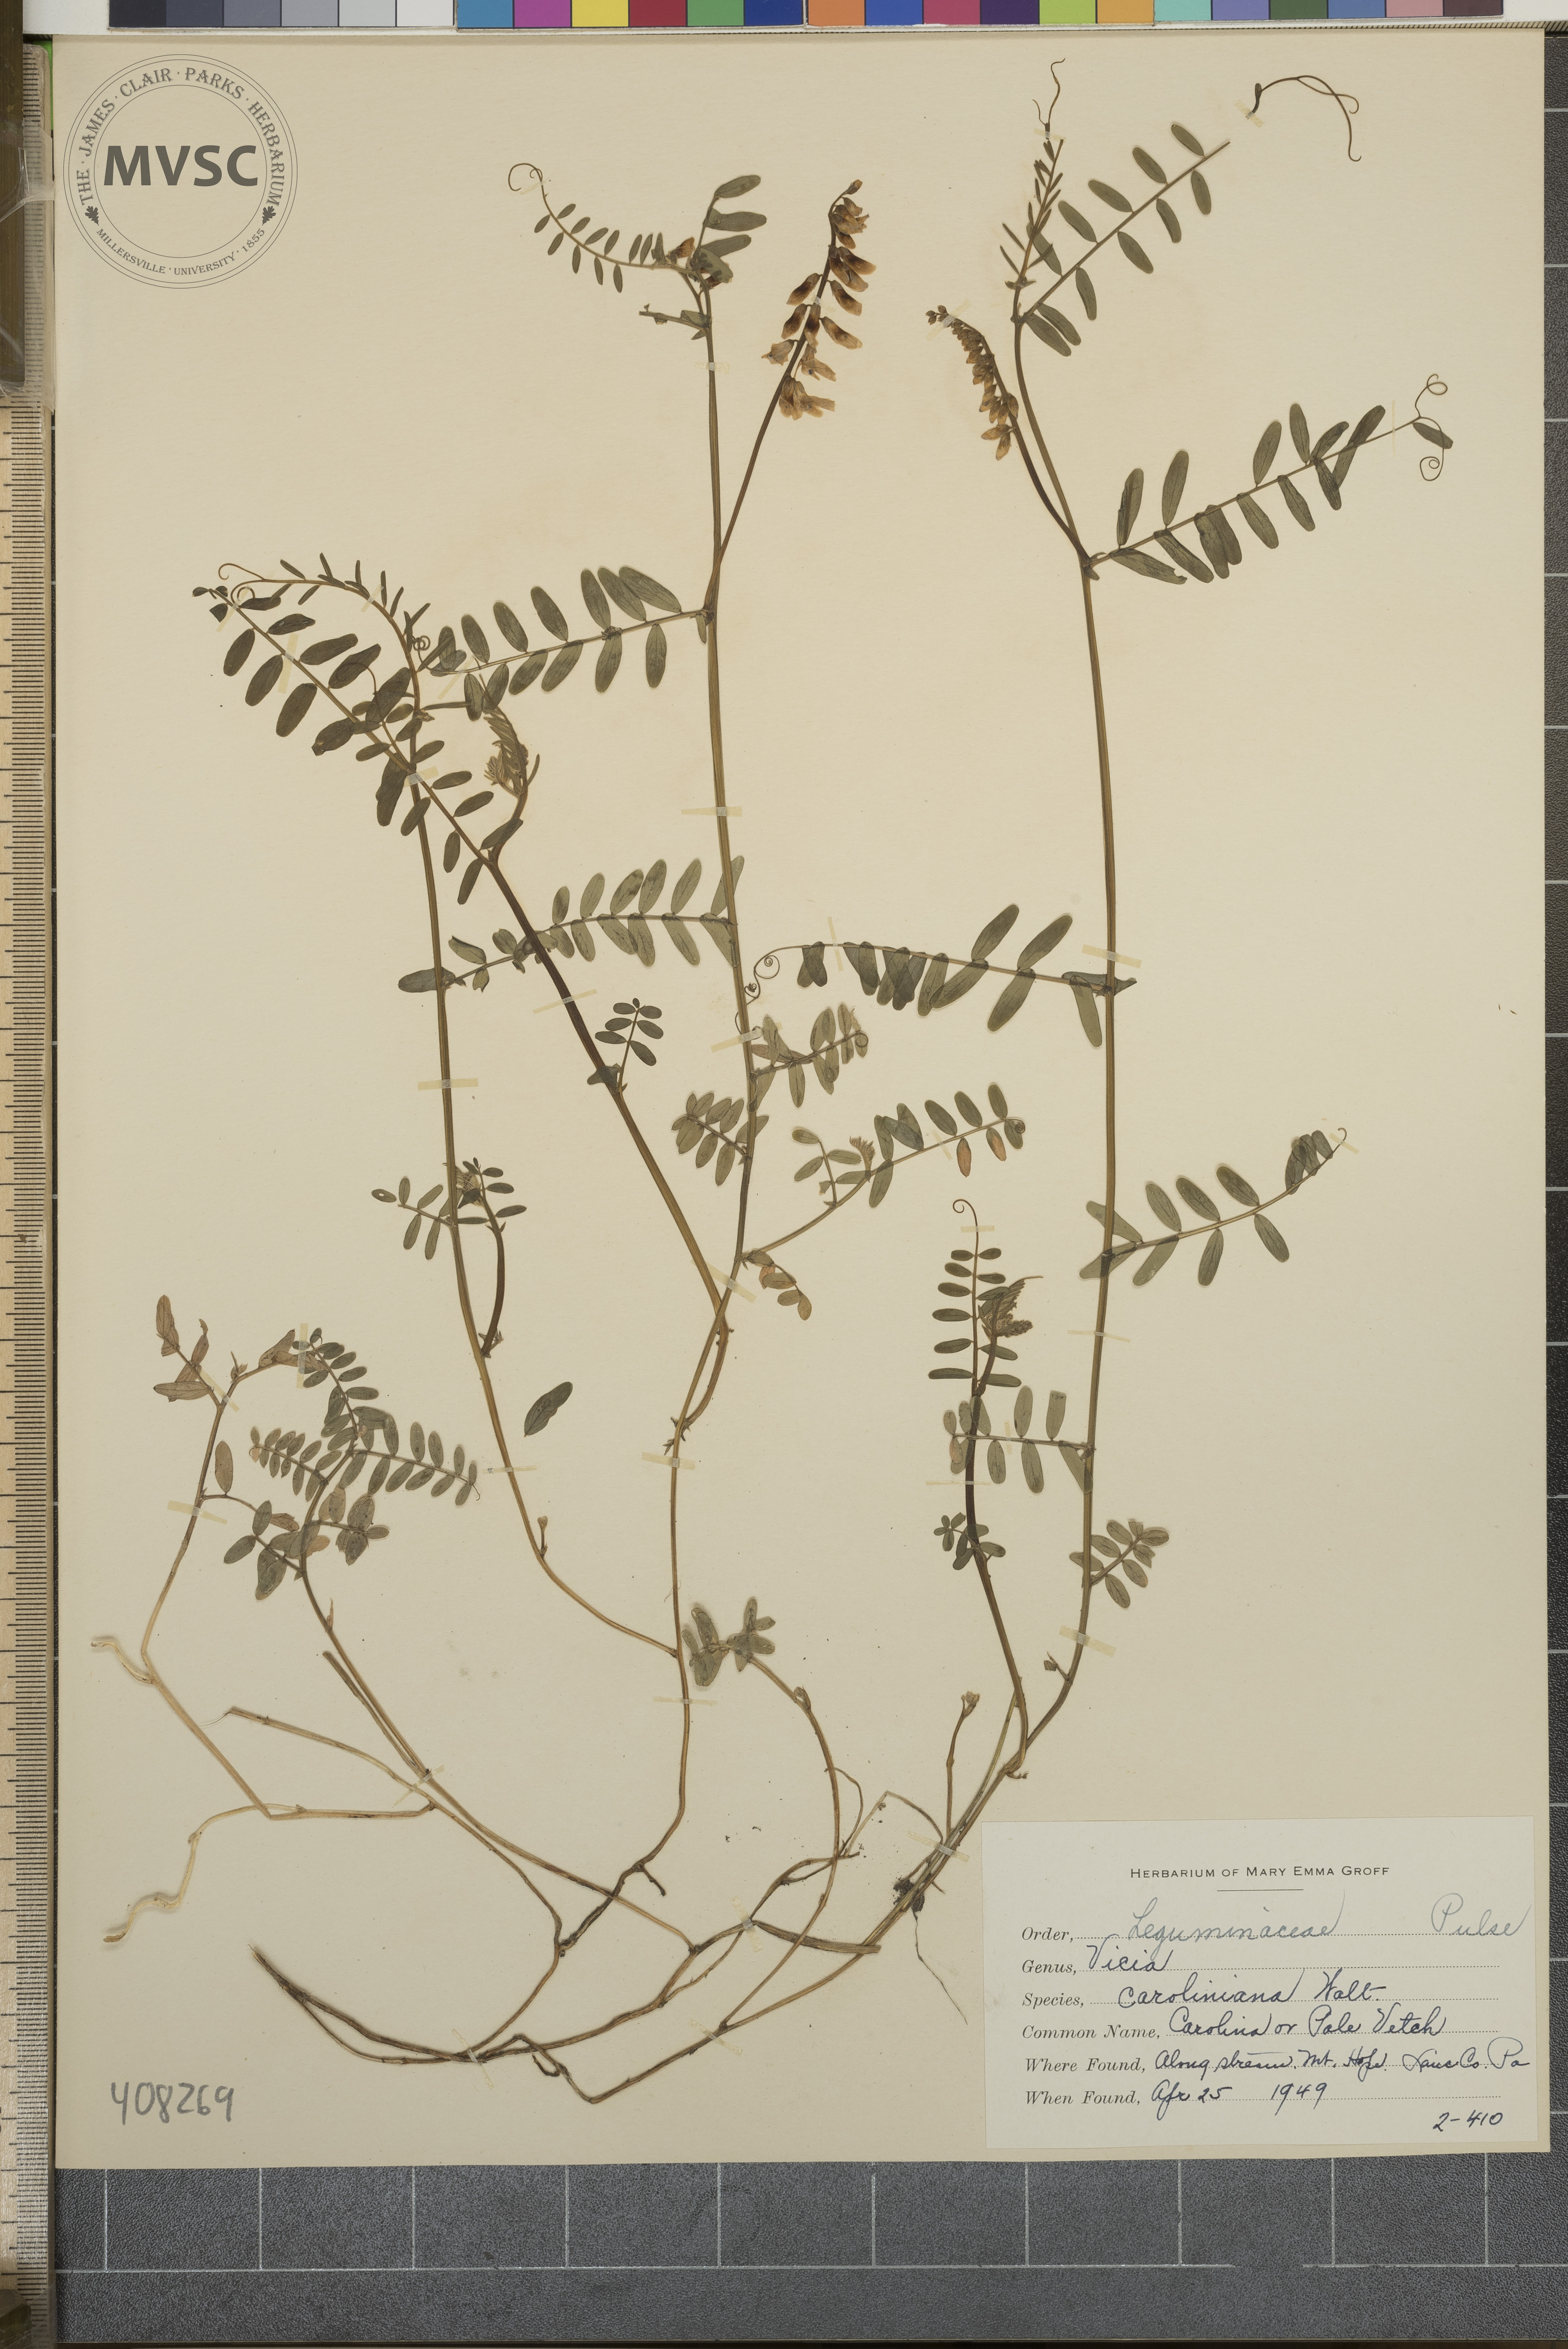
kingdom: Plantae
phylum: Tracheophyta
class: Magnoliopsida
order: Fabales
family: Fabaceae
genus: Vicia
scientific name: Vicia caroliniana
